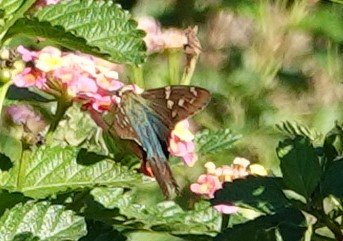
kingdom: Animalia
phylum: Arthropoda
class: Insecta
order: Lepidoptera
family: Hesperiidae
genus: Urbanus
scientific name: Urbanus proteus
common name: Long-tailed Skipper
